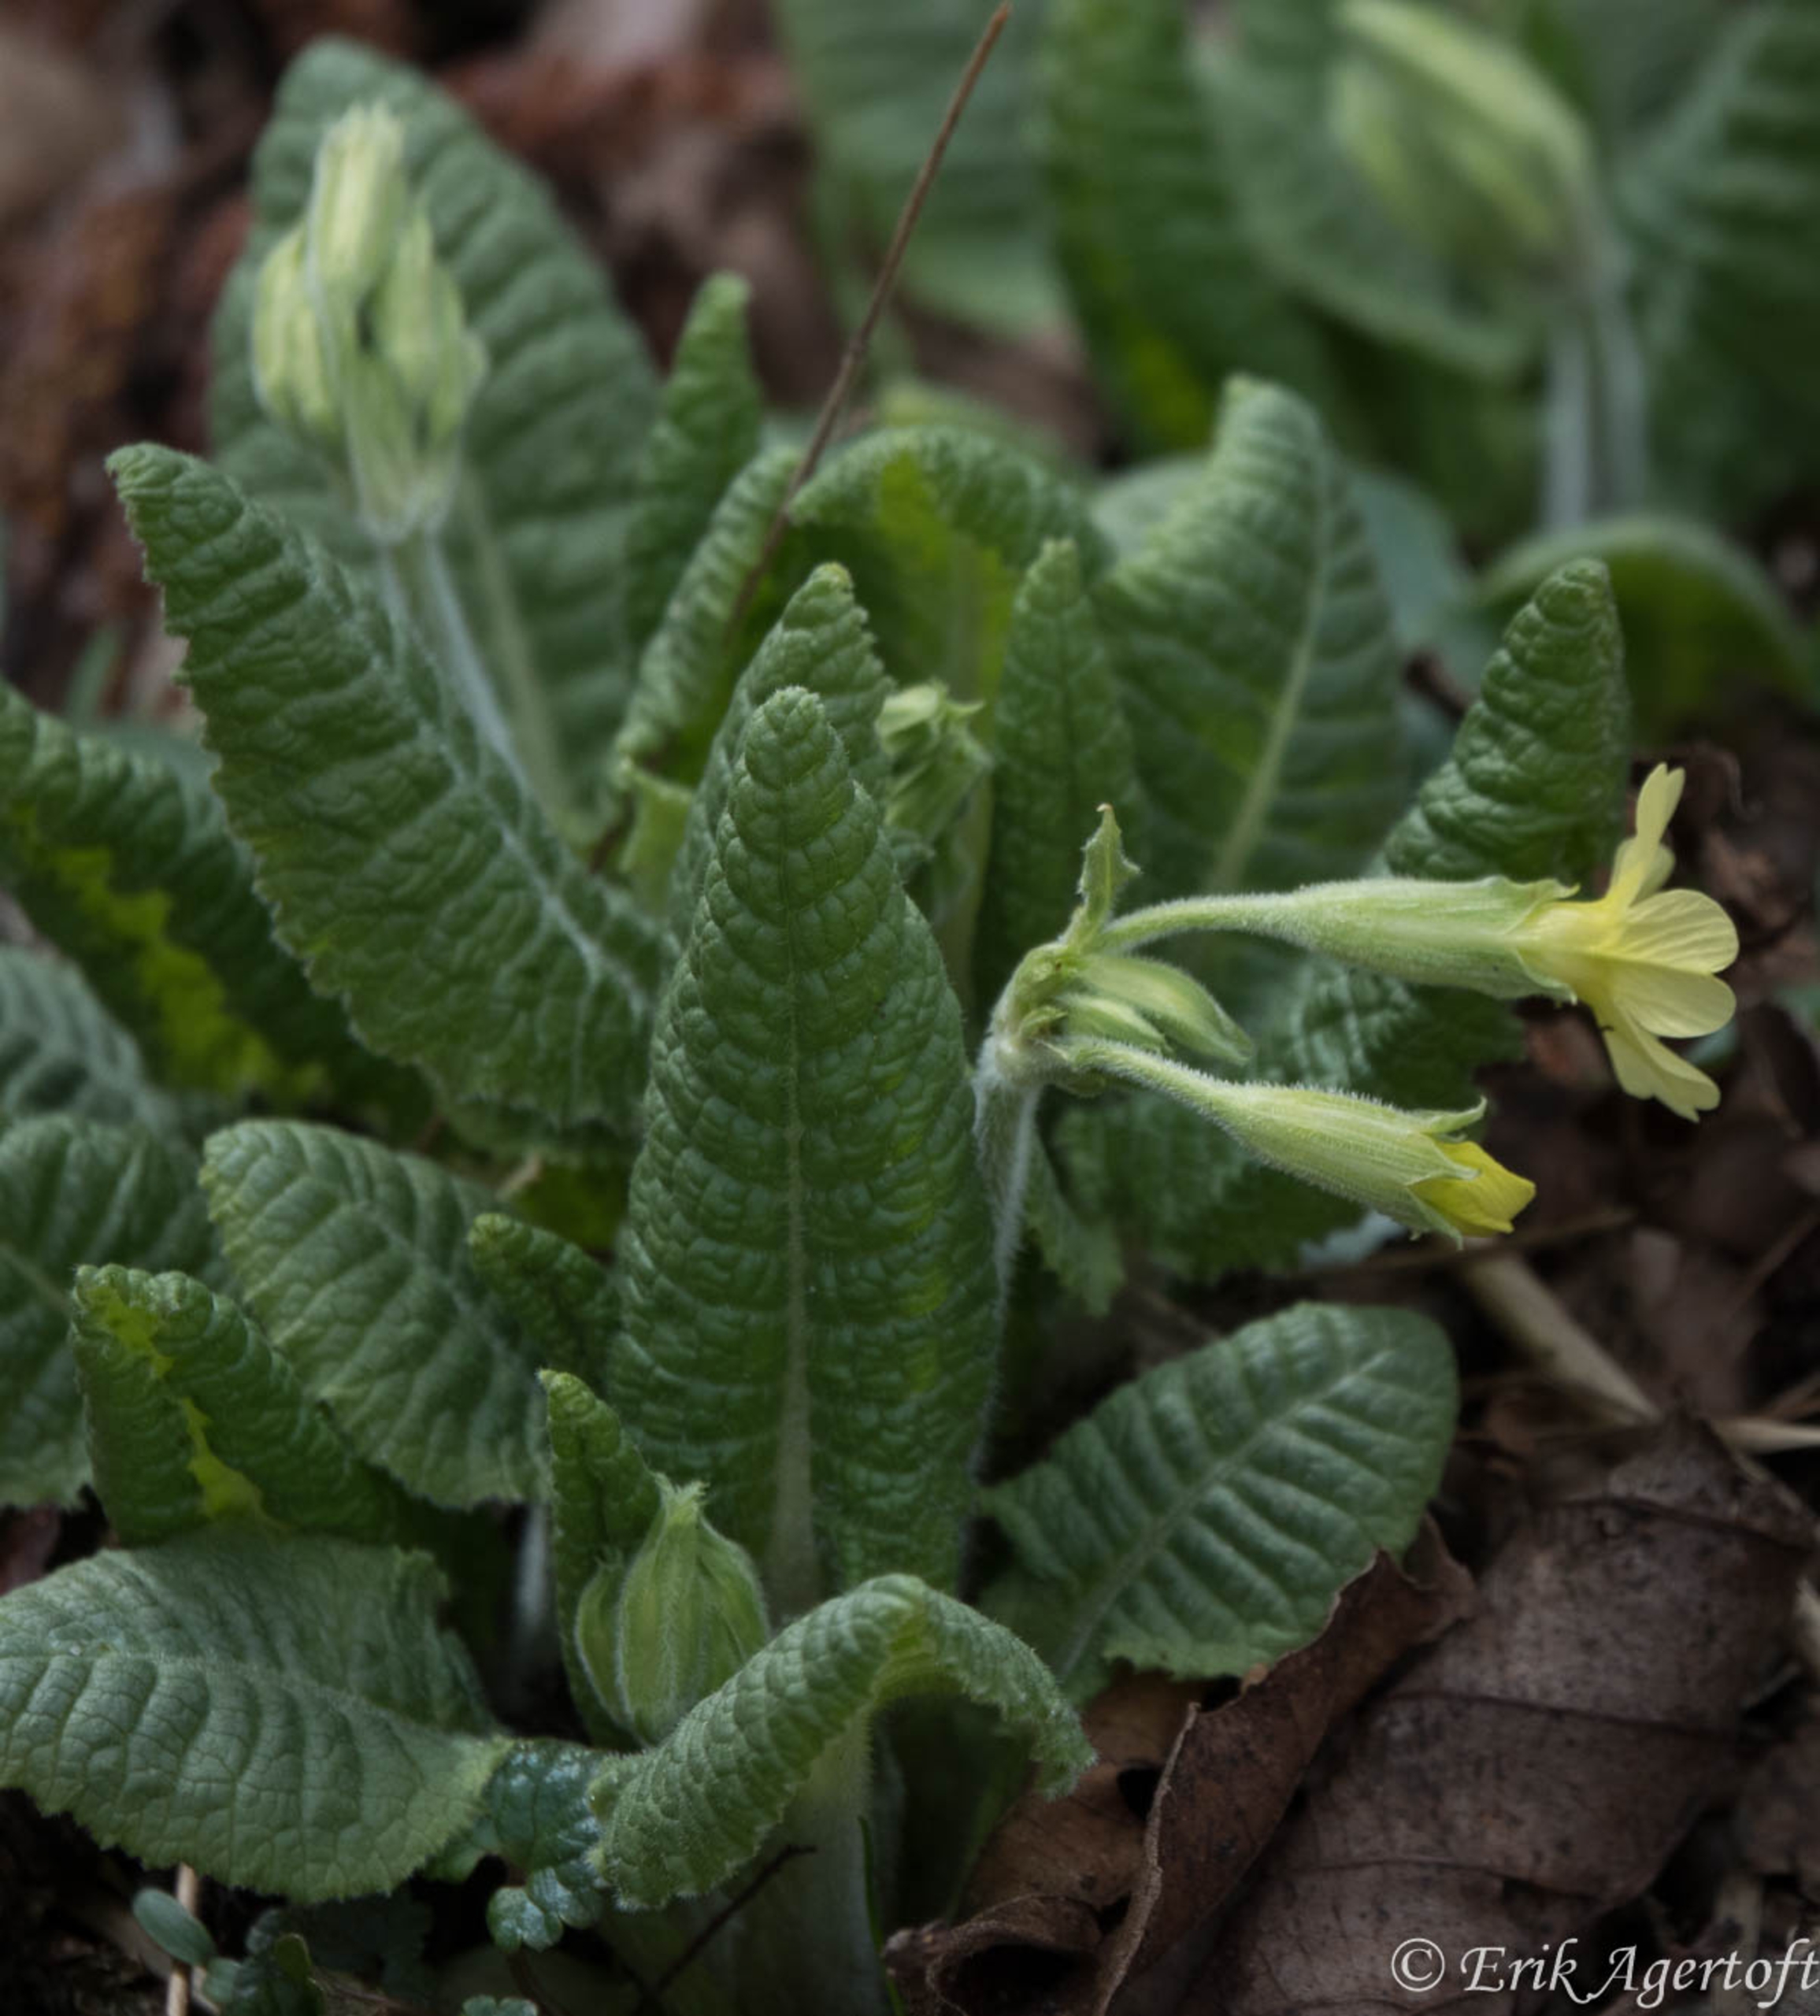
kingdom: Plantae
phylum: Tracheophyta
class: Magnoliopsida
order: Ericales
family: Primulaceae
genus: Primula
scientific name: Primula elatior
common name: Fladkravet kodriver
